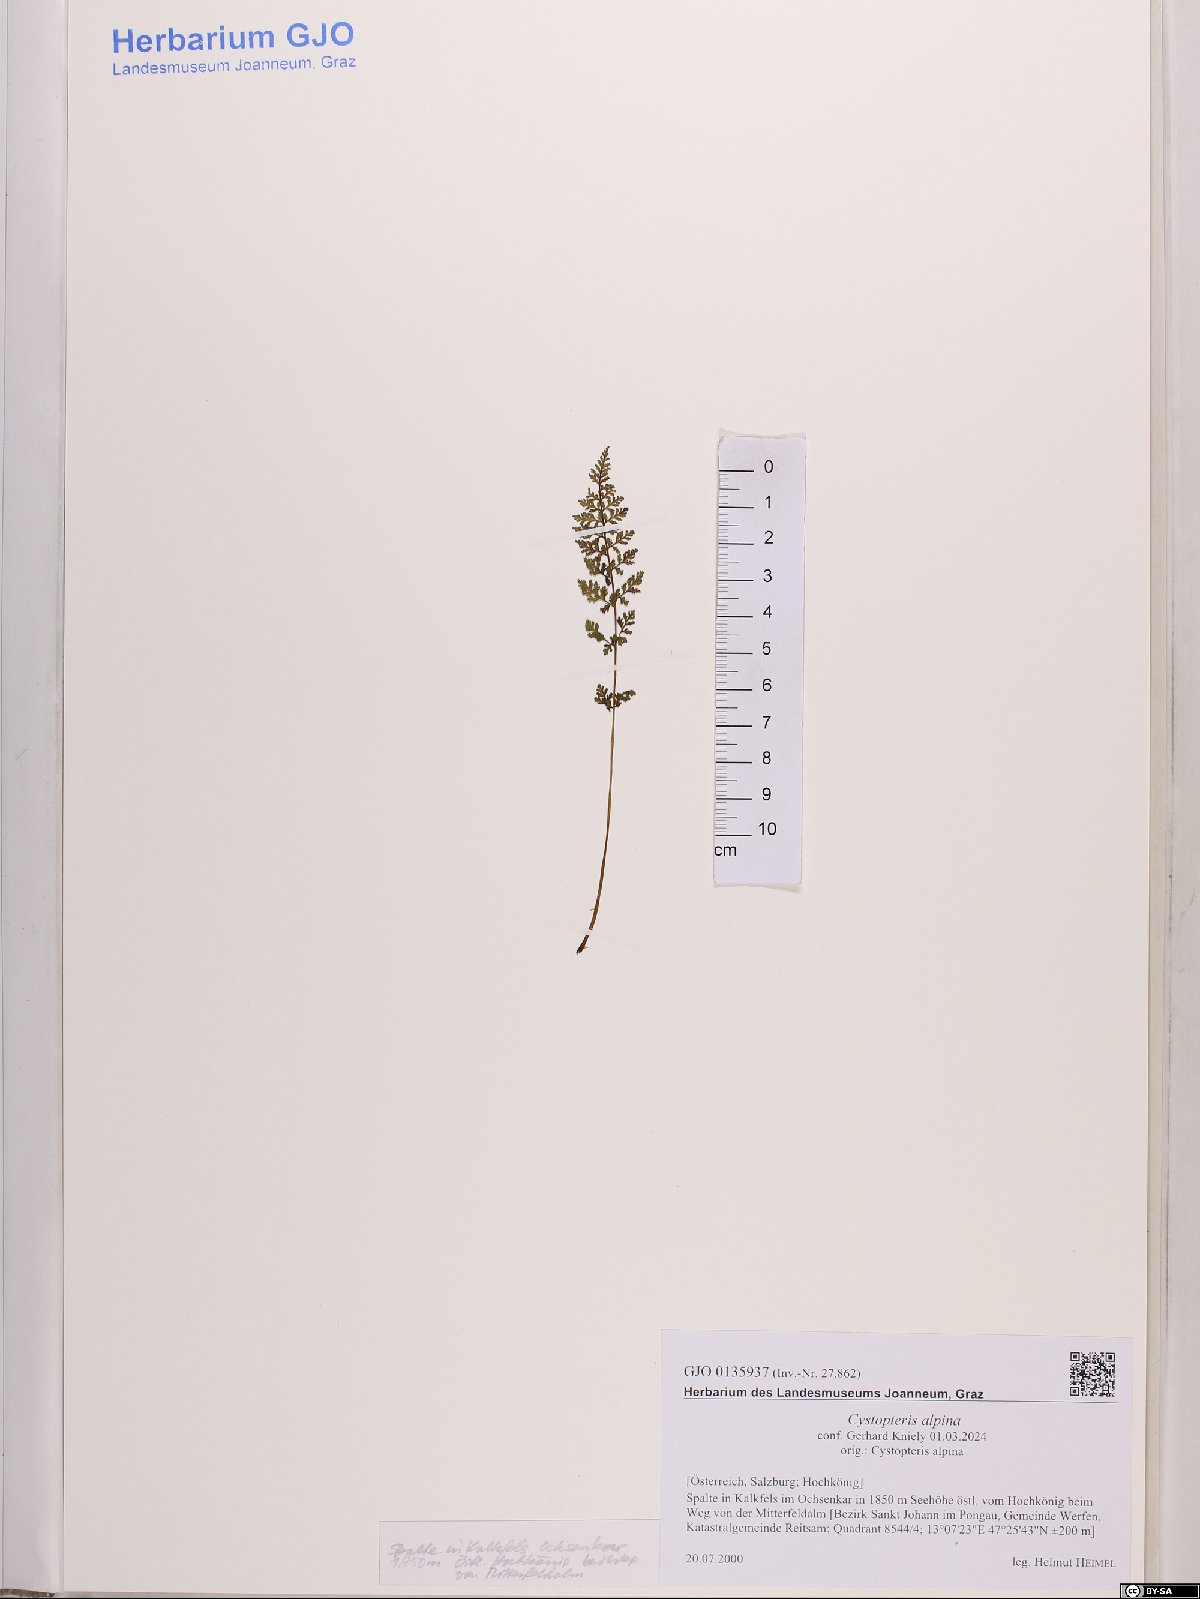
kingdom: Plantae
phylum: Tracheophyta
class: Polypodiopsida
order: Polypodiales
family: Cystopteridaceae
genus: Cystopteris
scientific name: Cystopteris alpina
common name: Alpine bladder-fern
